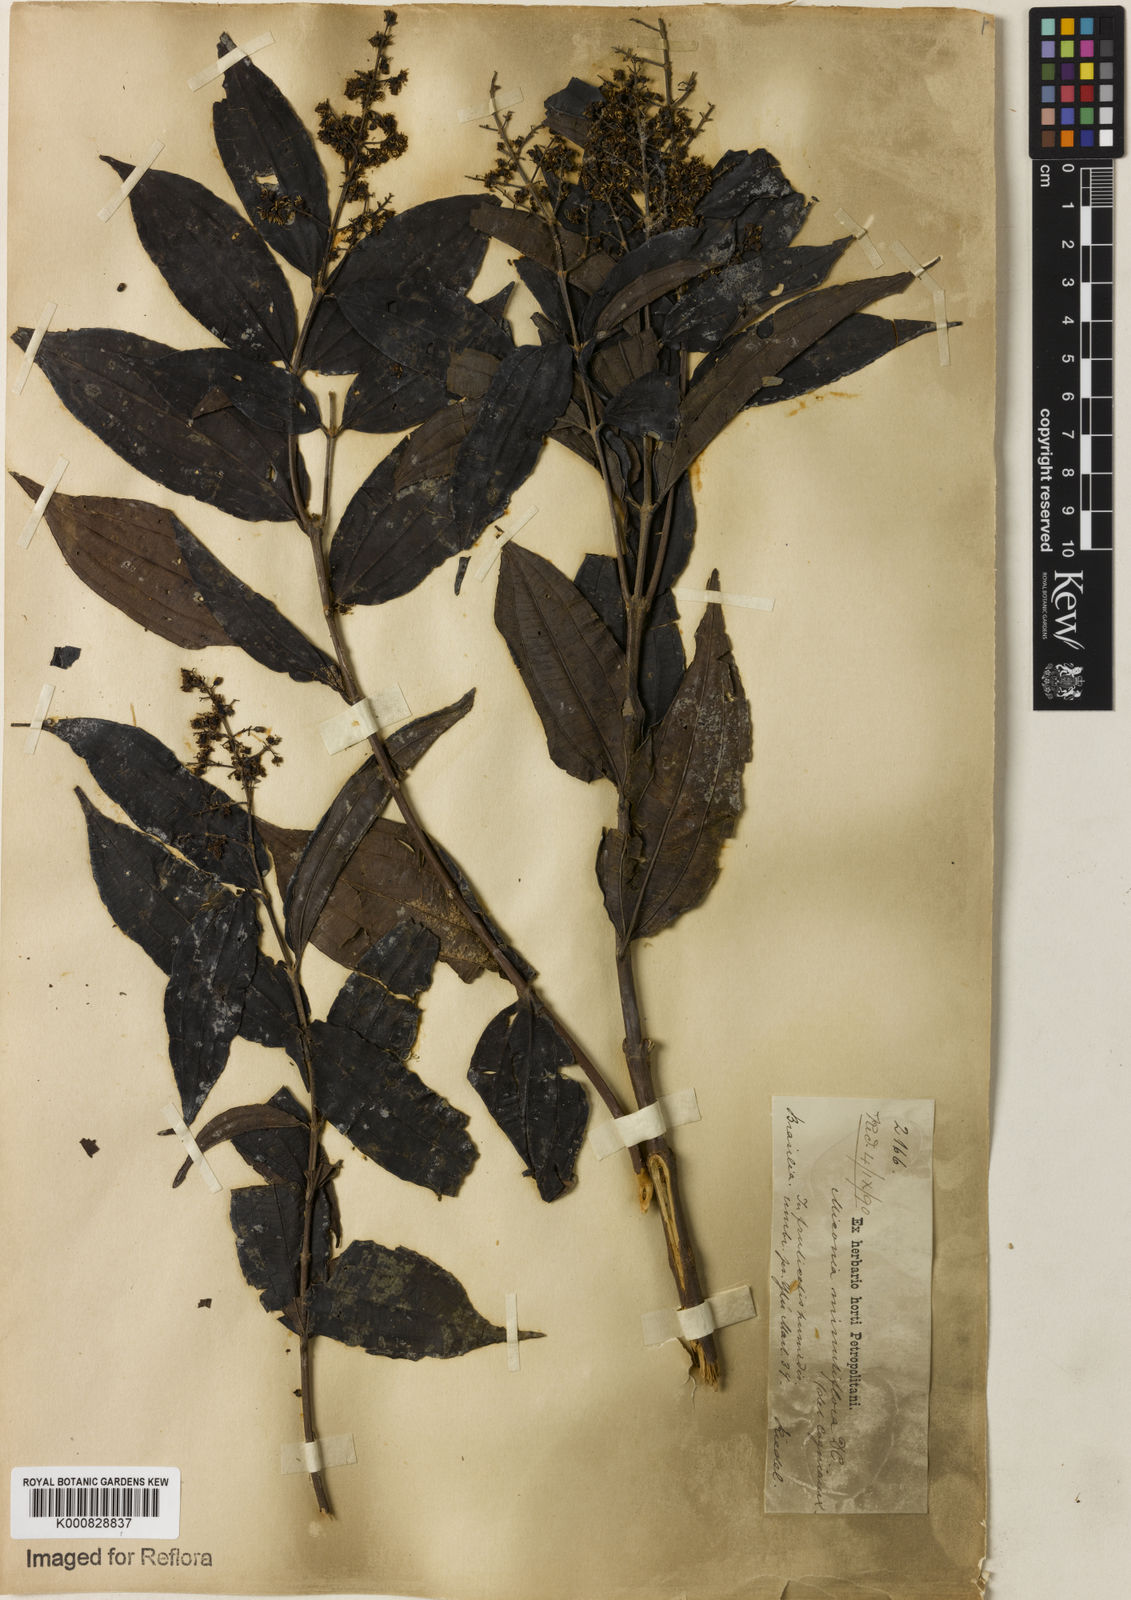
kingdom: Plantae
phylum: Tracheophyta
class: Magnoliopsida
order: Myrtales
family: Melastomataceae
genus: Miconia
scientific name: Miconia minutiflora
